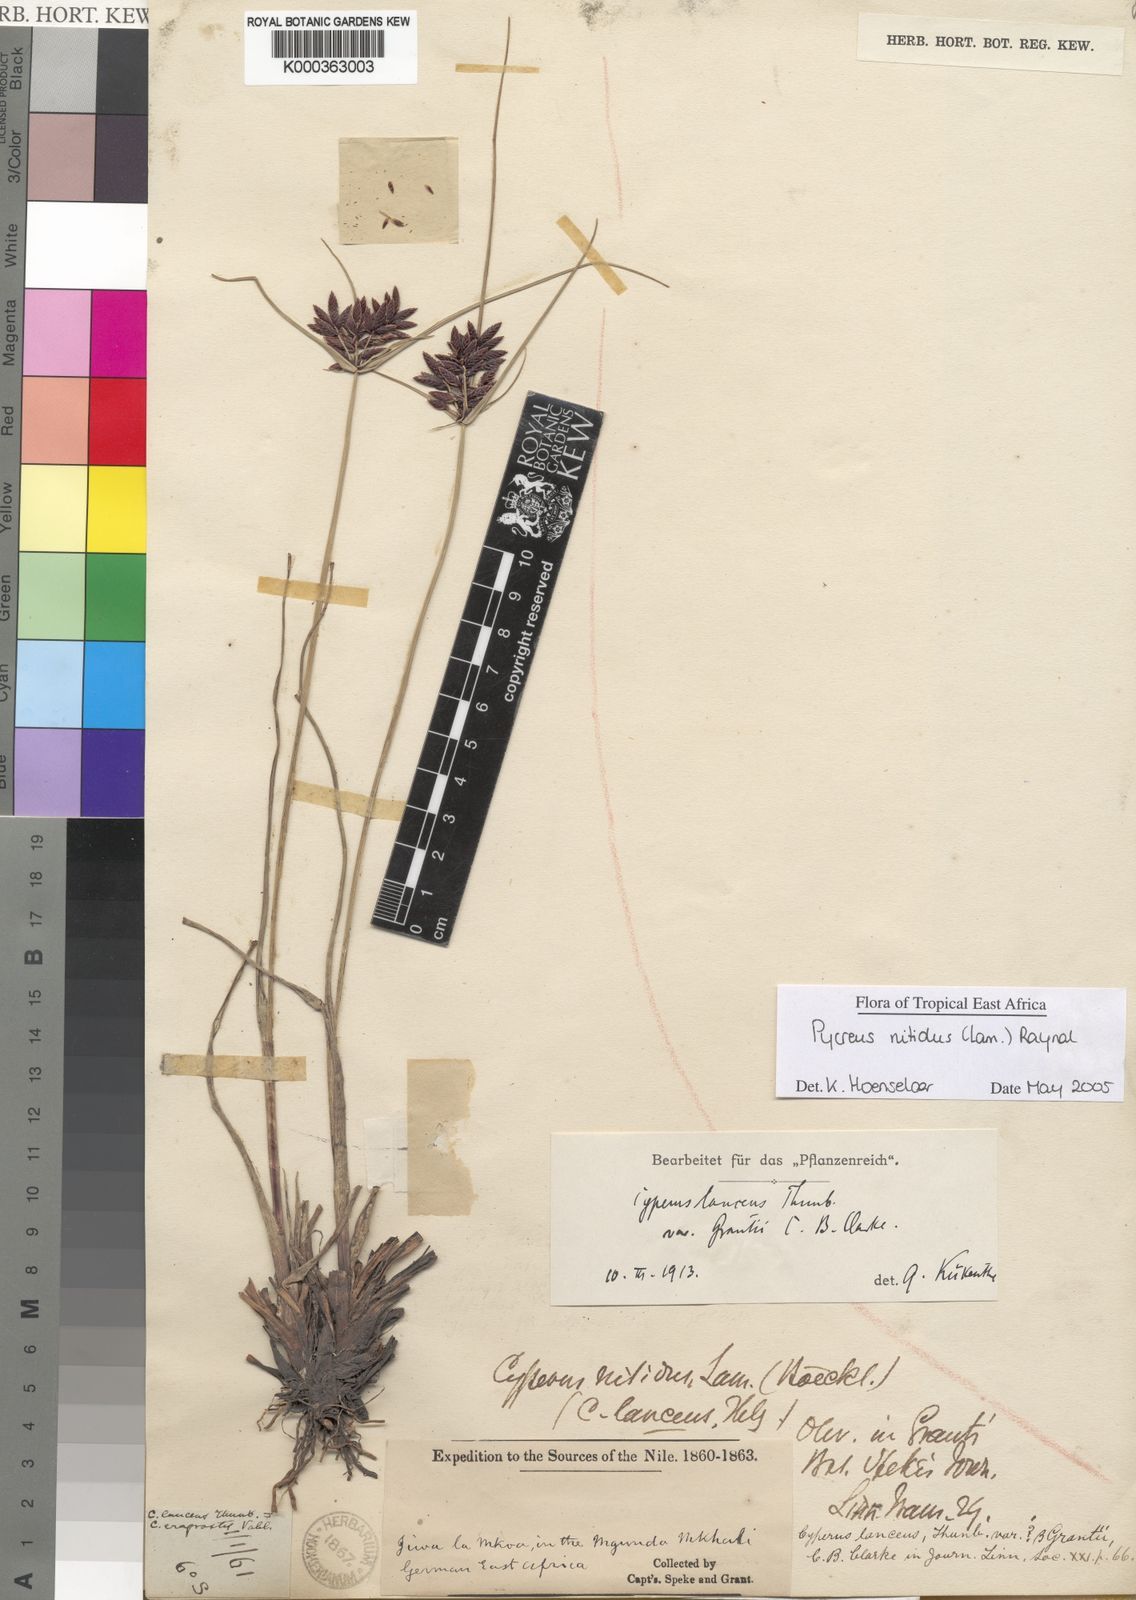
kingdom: Plantae
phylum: Tracheophyta
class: Liliopsida
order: Poales
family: Cyperaceae
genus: Cyperus
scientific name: Cyperus nitidus
